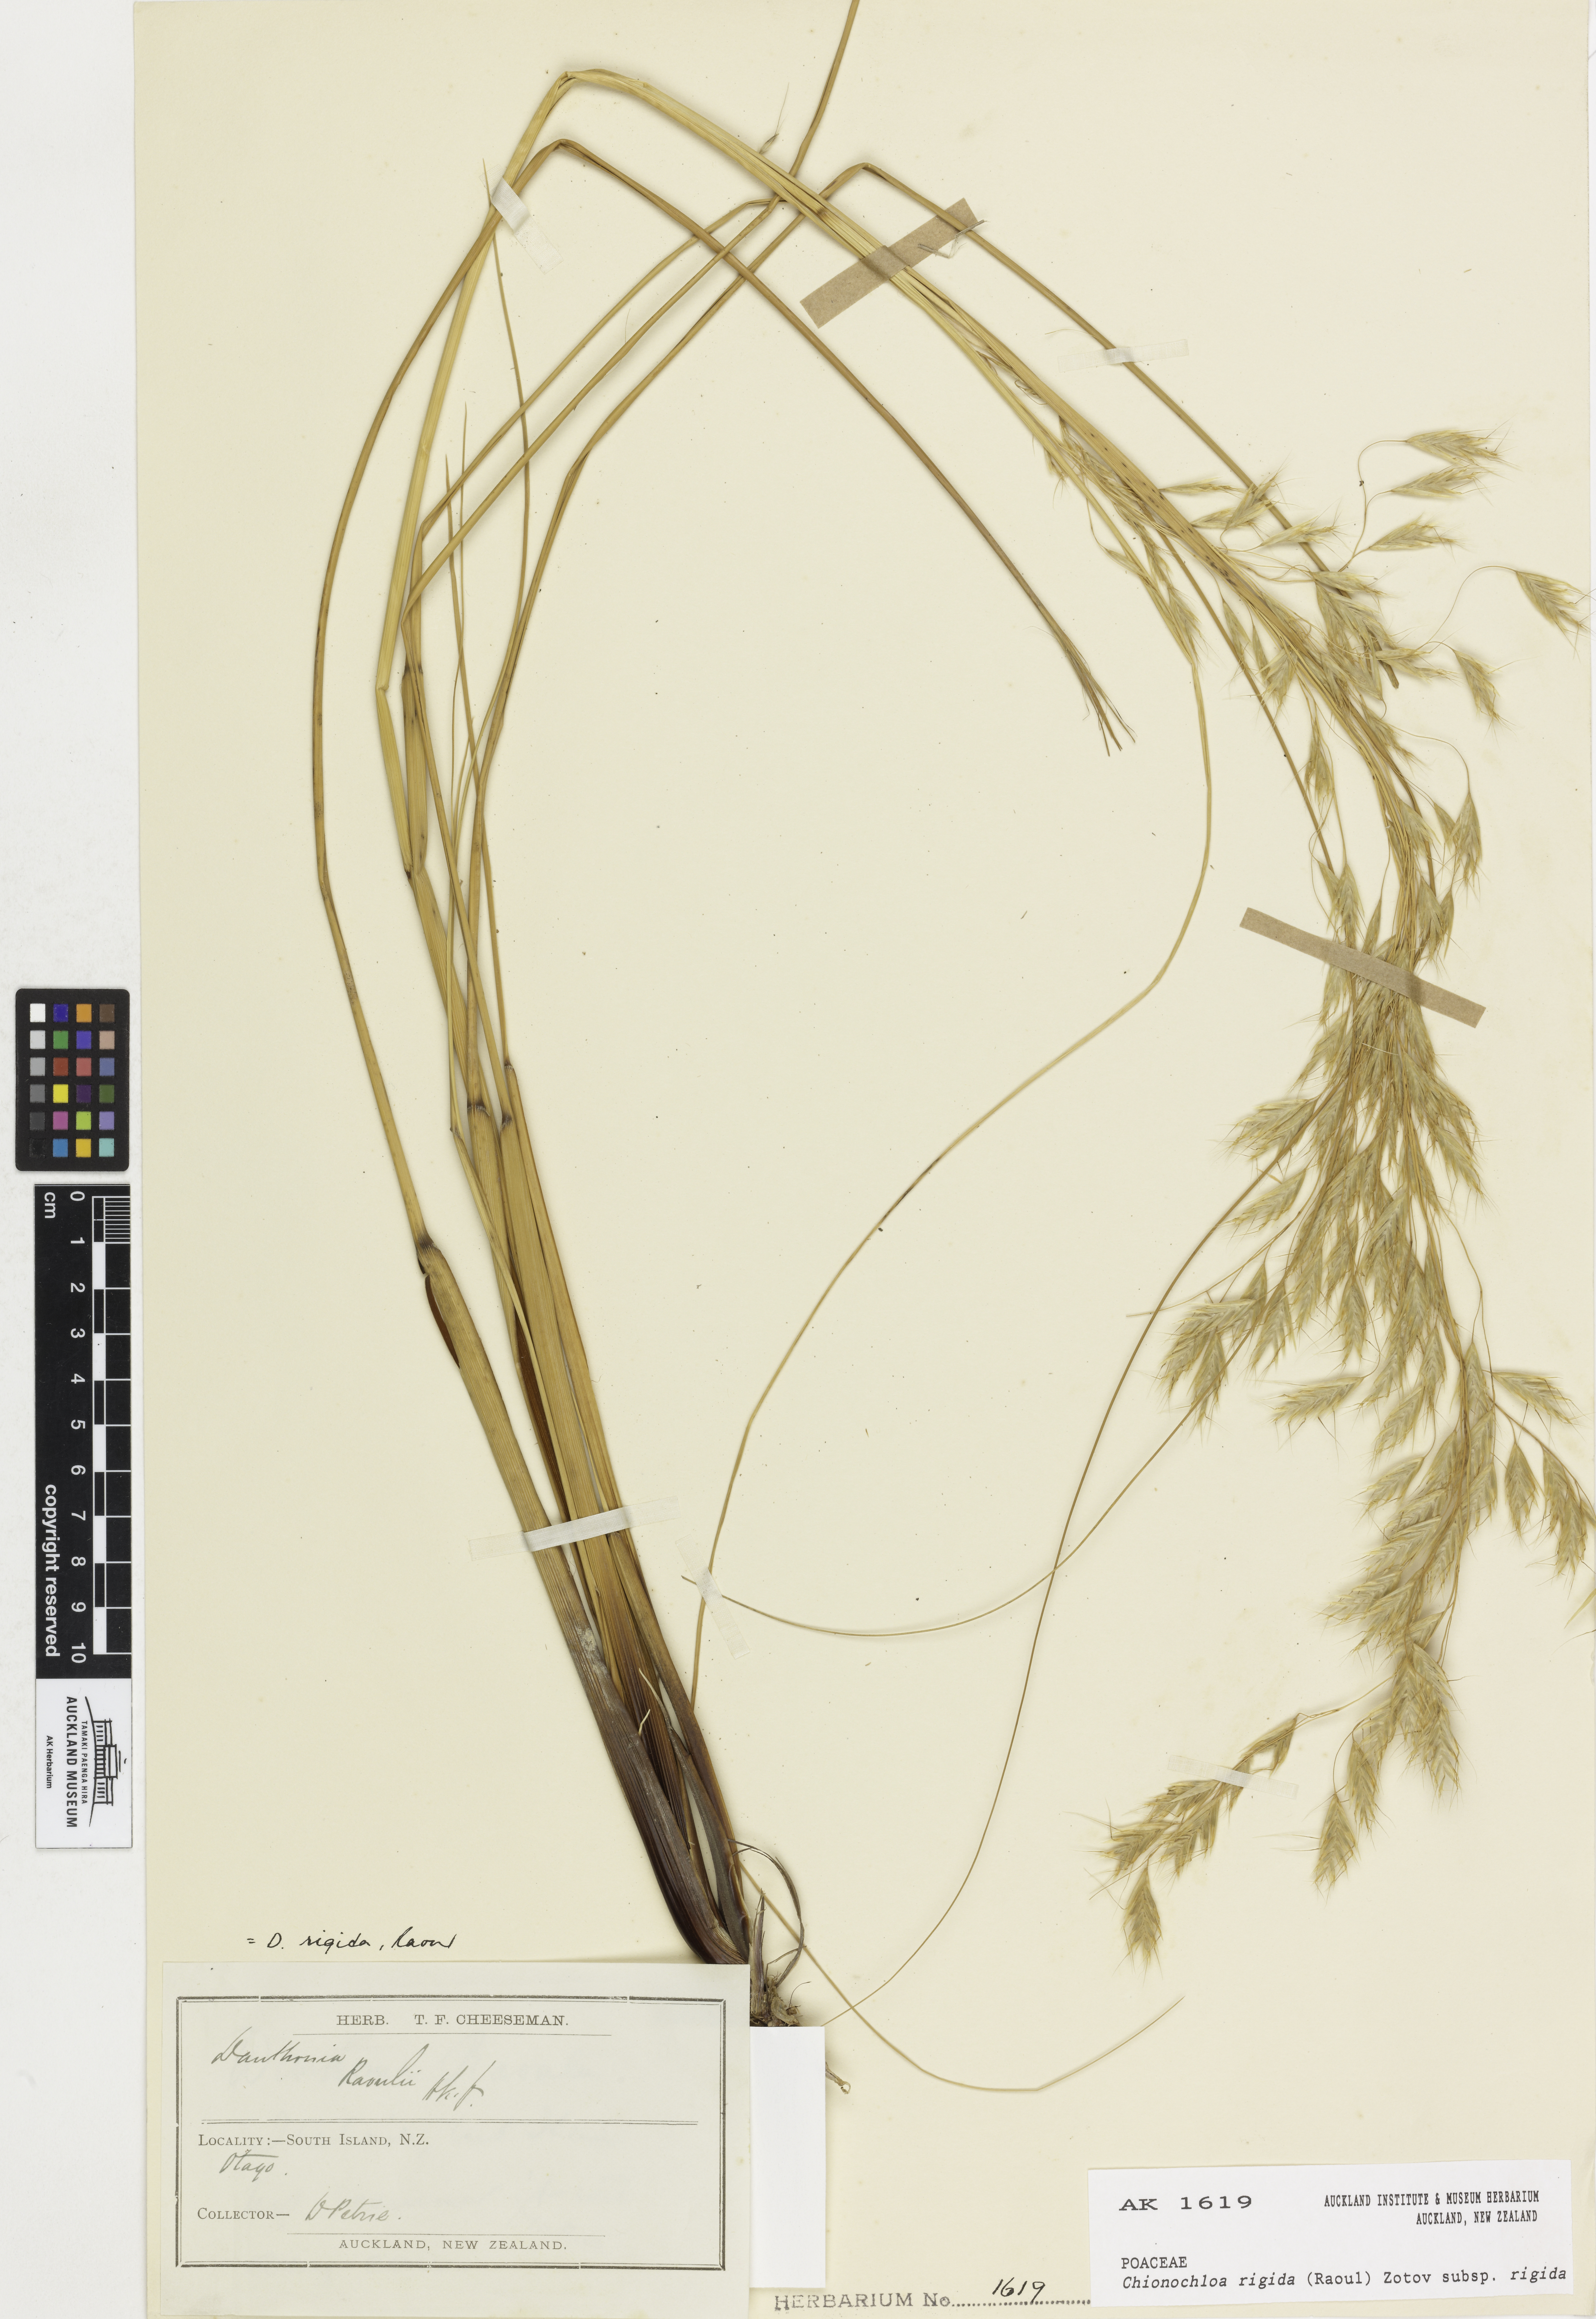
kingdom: Plantae
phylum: Tracheophyta
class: Liliopsida
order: Poales
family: Poaceae
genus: Chionochloa
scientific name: Chionochloa rigida
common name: Narrow leaved snow tussock
